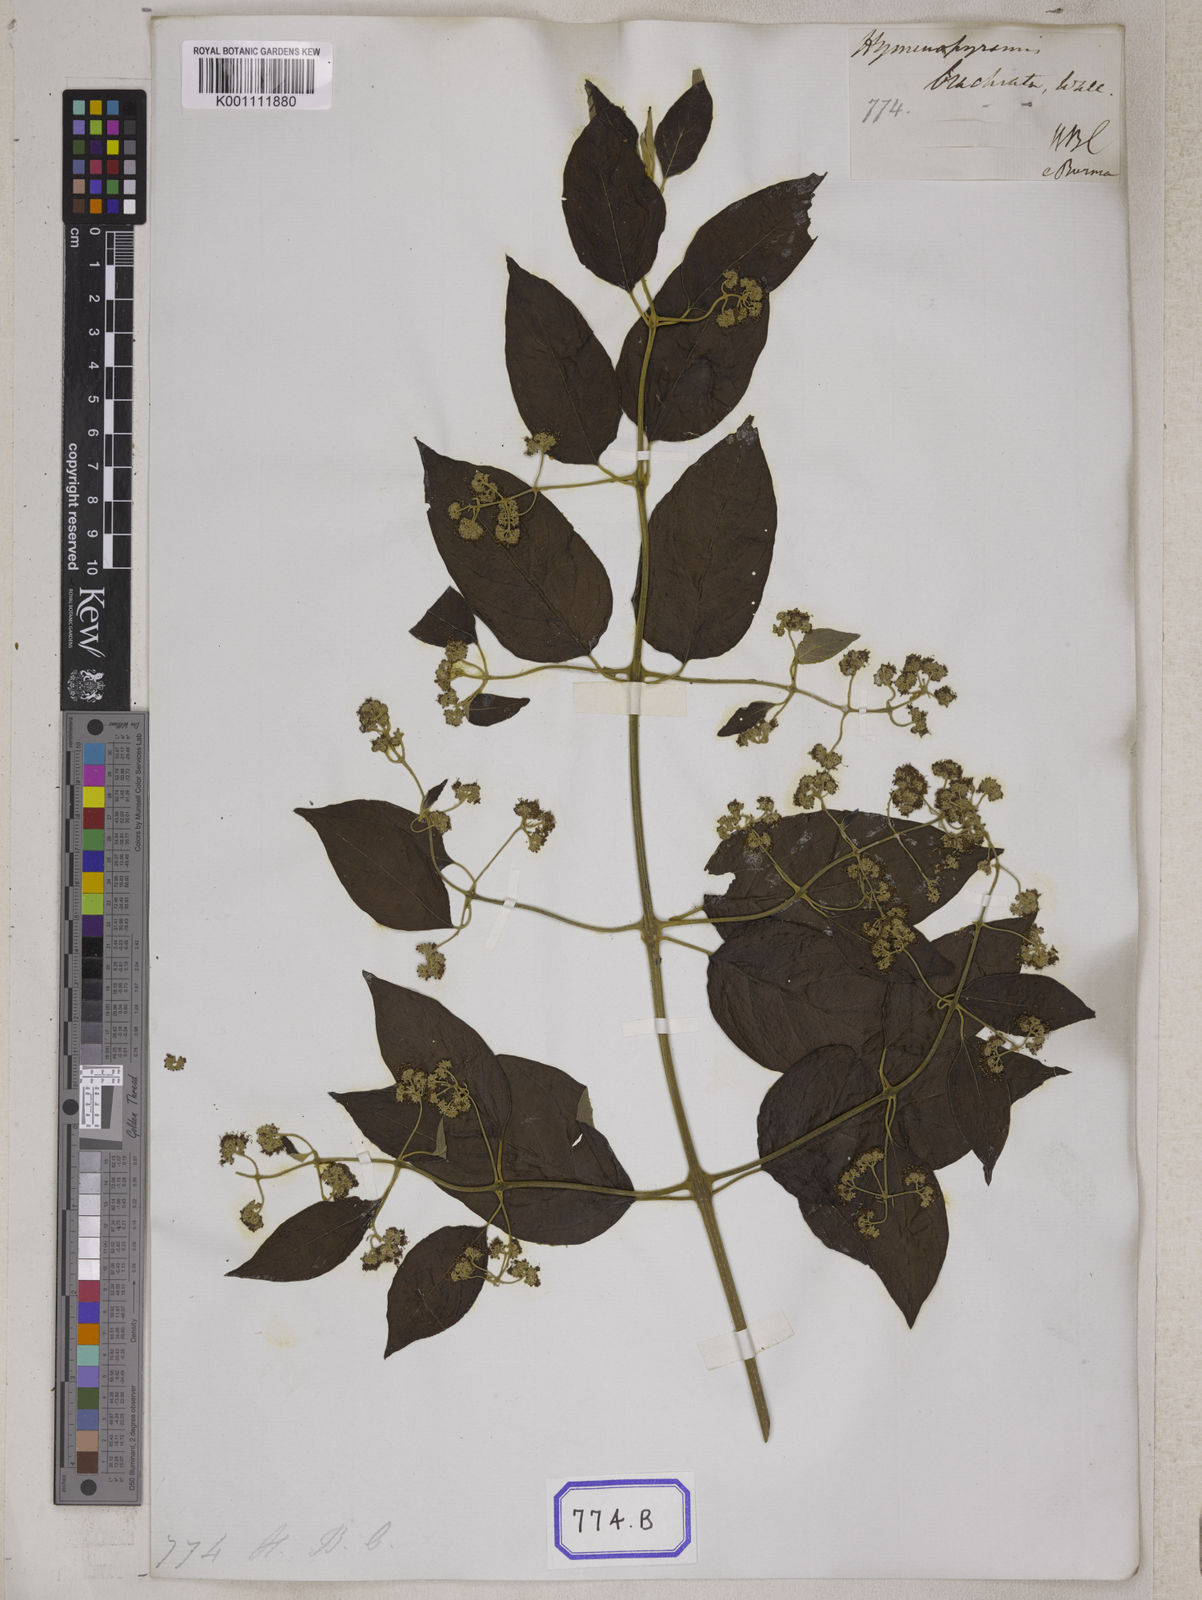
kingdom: Plantae
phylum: Tracheophyta
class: Magnoliopsida
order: Lamiales
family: Lamiaceae
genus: Hymenopyramis
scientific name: Hymenopyramis
